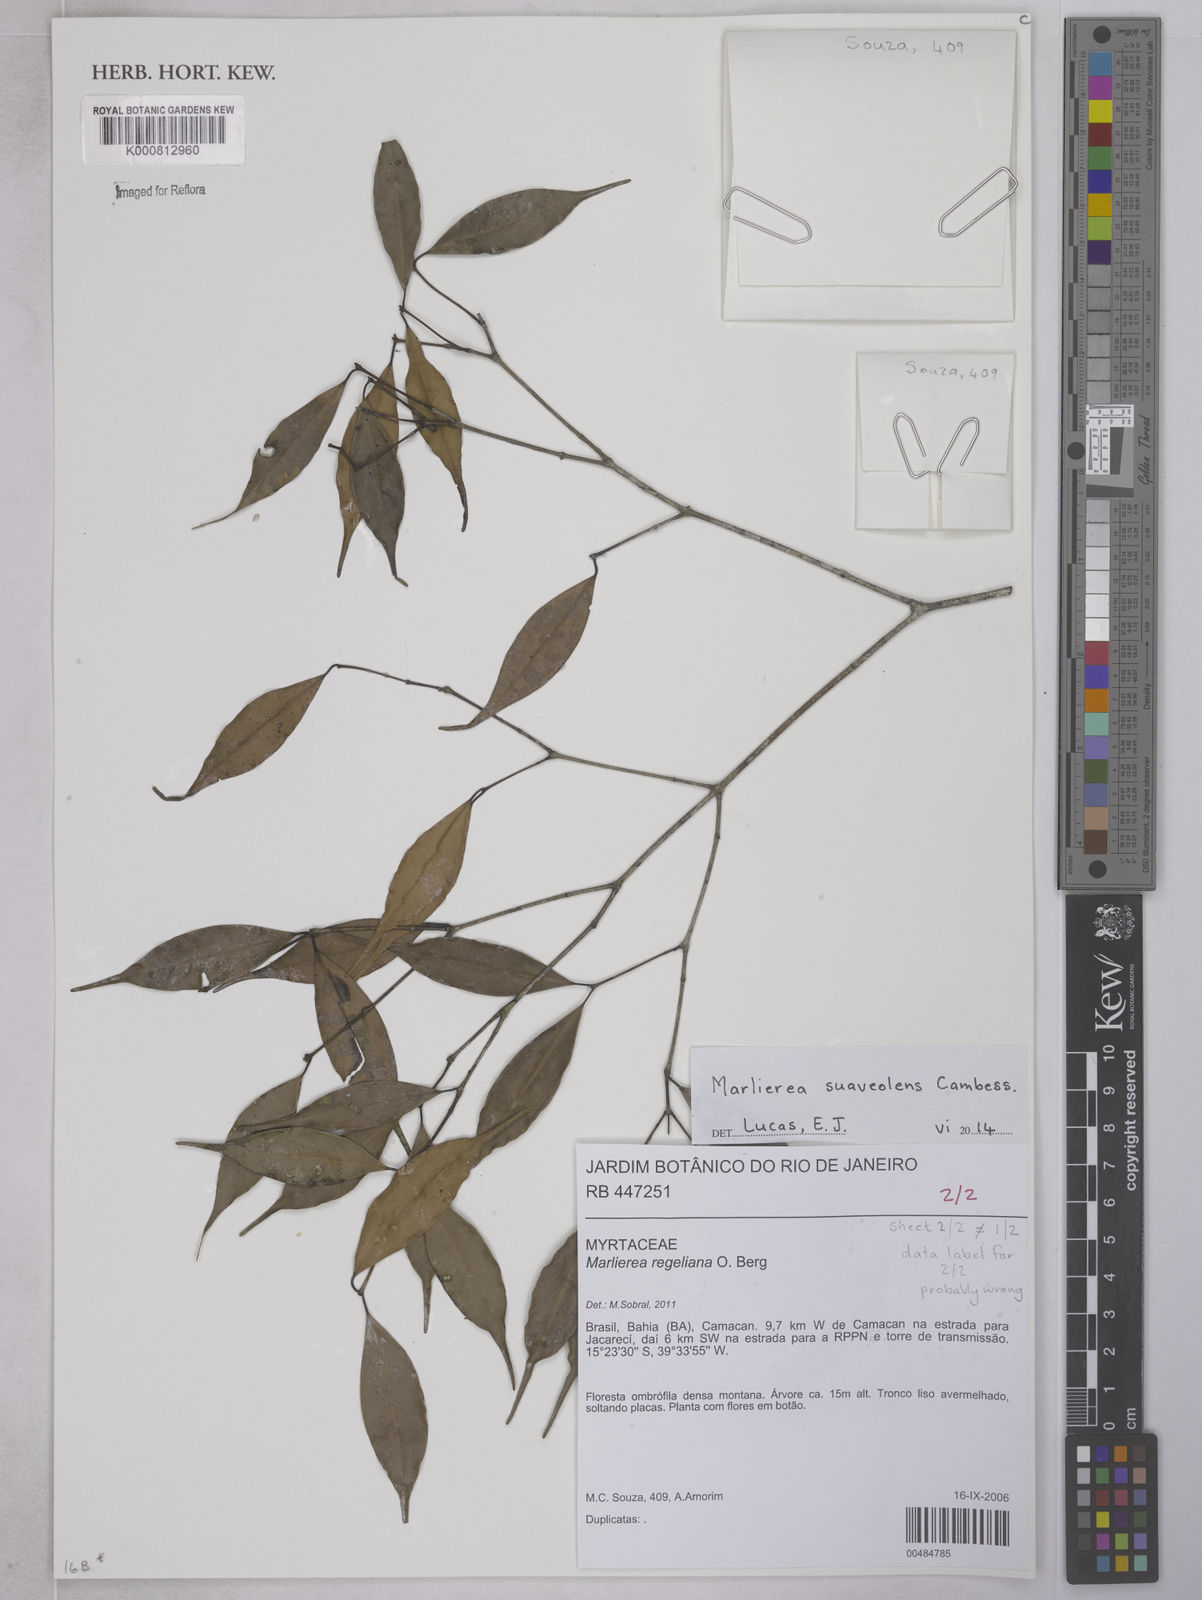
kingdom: Plantae
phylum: Tracheophyta
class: Magnoliopsida
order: Myrtales
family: Myrtaceae
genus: Myrcia
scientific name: Myrcia neosuaveolens
